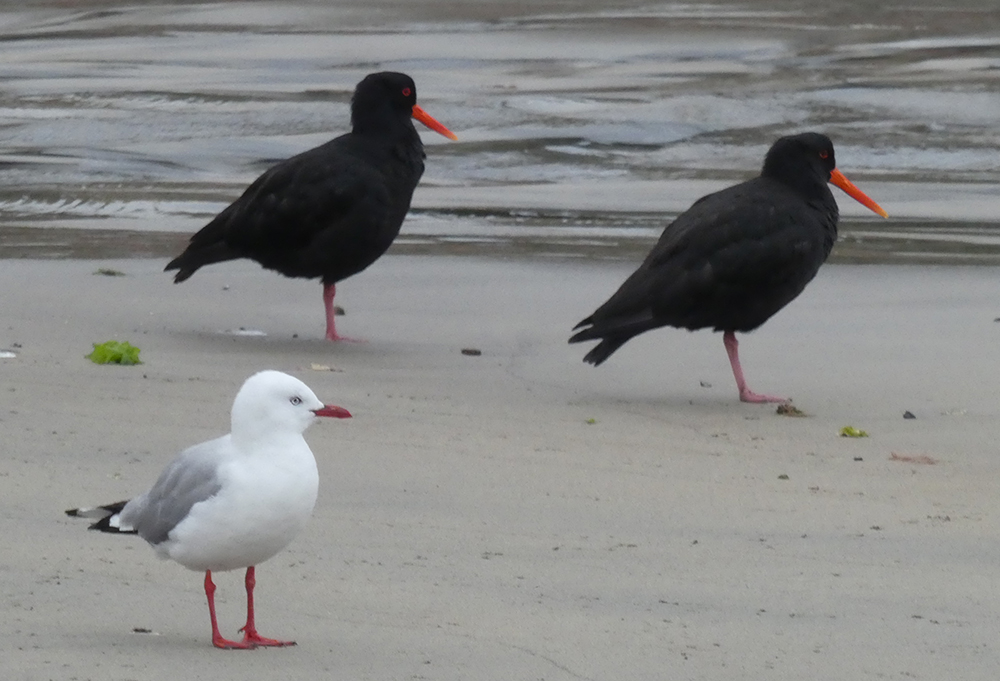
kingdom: Animalia
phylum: Chordata
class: Aves
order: Charadriiformes
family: Laridae
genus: Chroicocephalus
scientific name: Chroicocephalus novaehollandiae
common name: Silver gull
